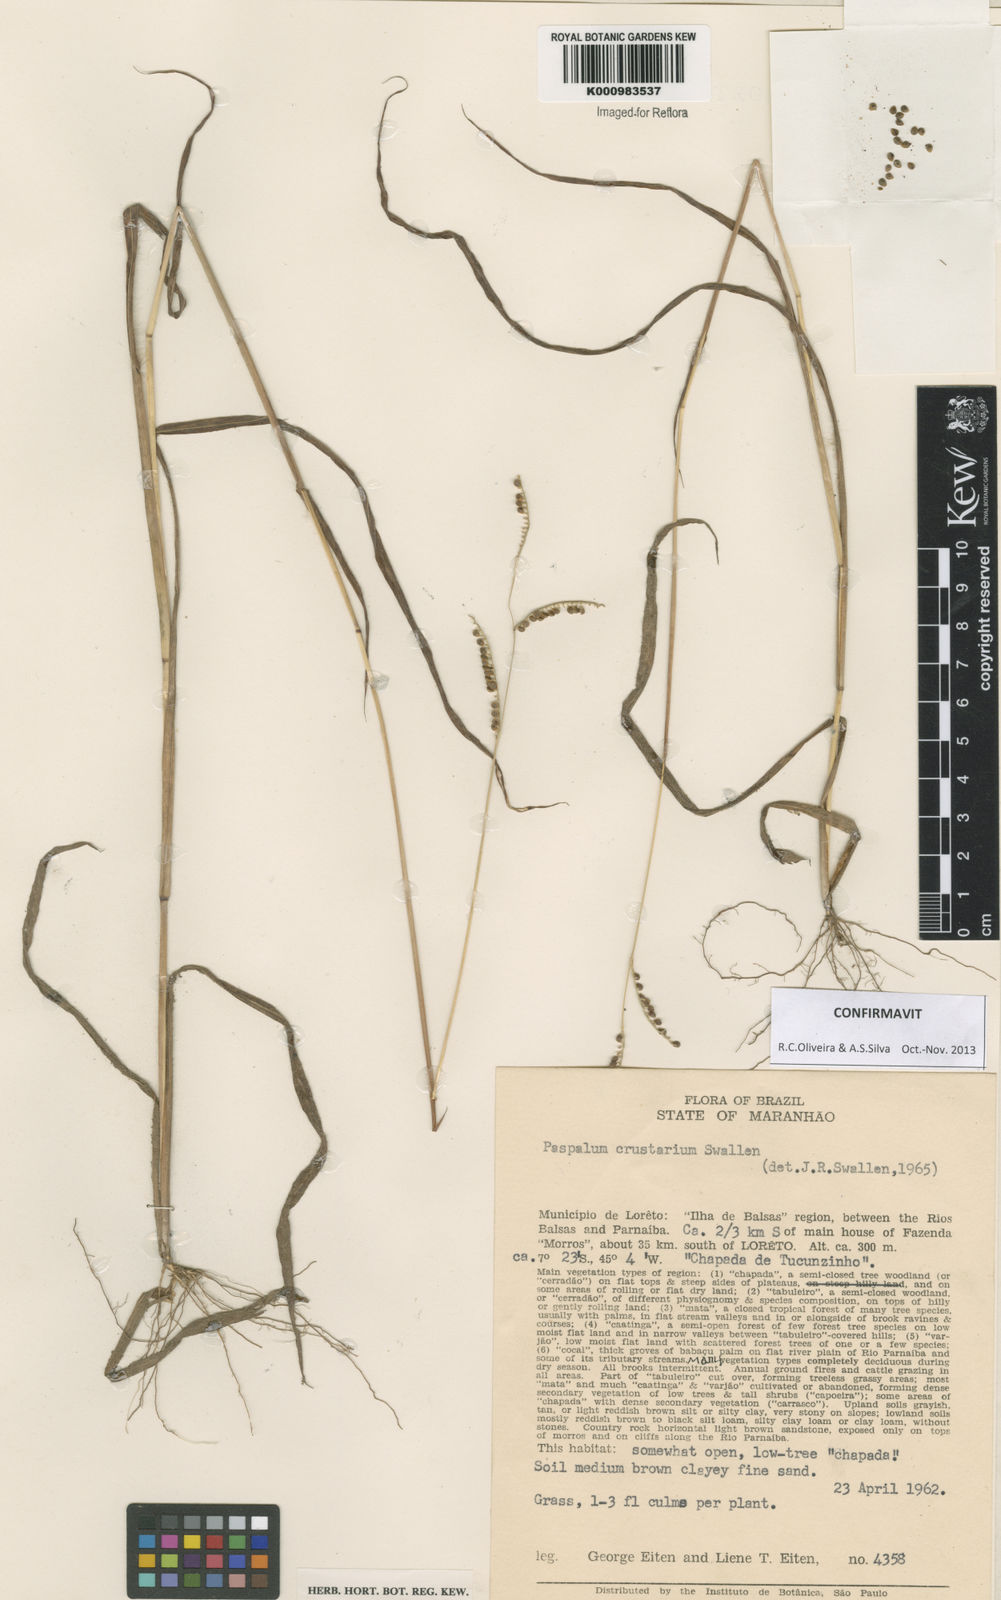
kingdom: Plantae
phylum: Tracheophyta
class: Liliopsida
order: Poales
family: Poaceae
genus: Paspalum
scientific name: Paspalum crustarium
